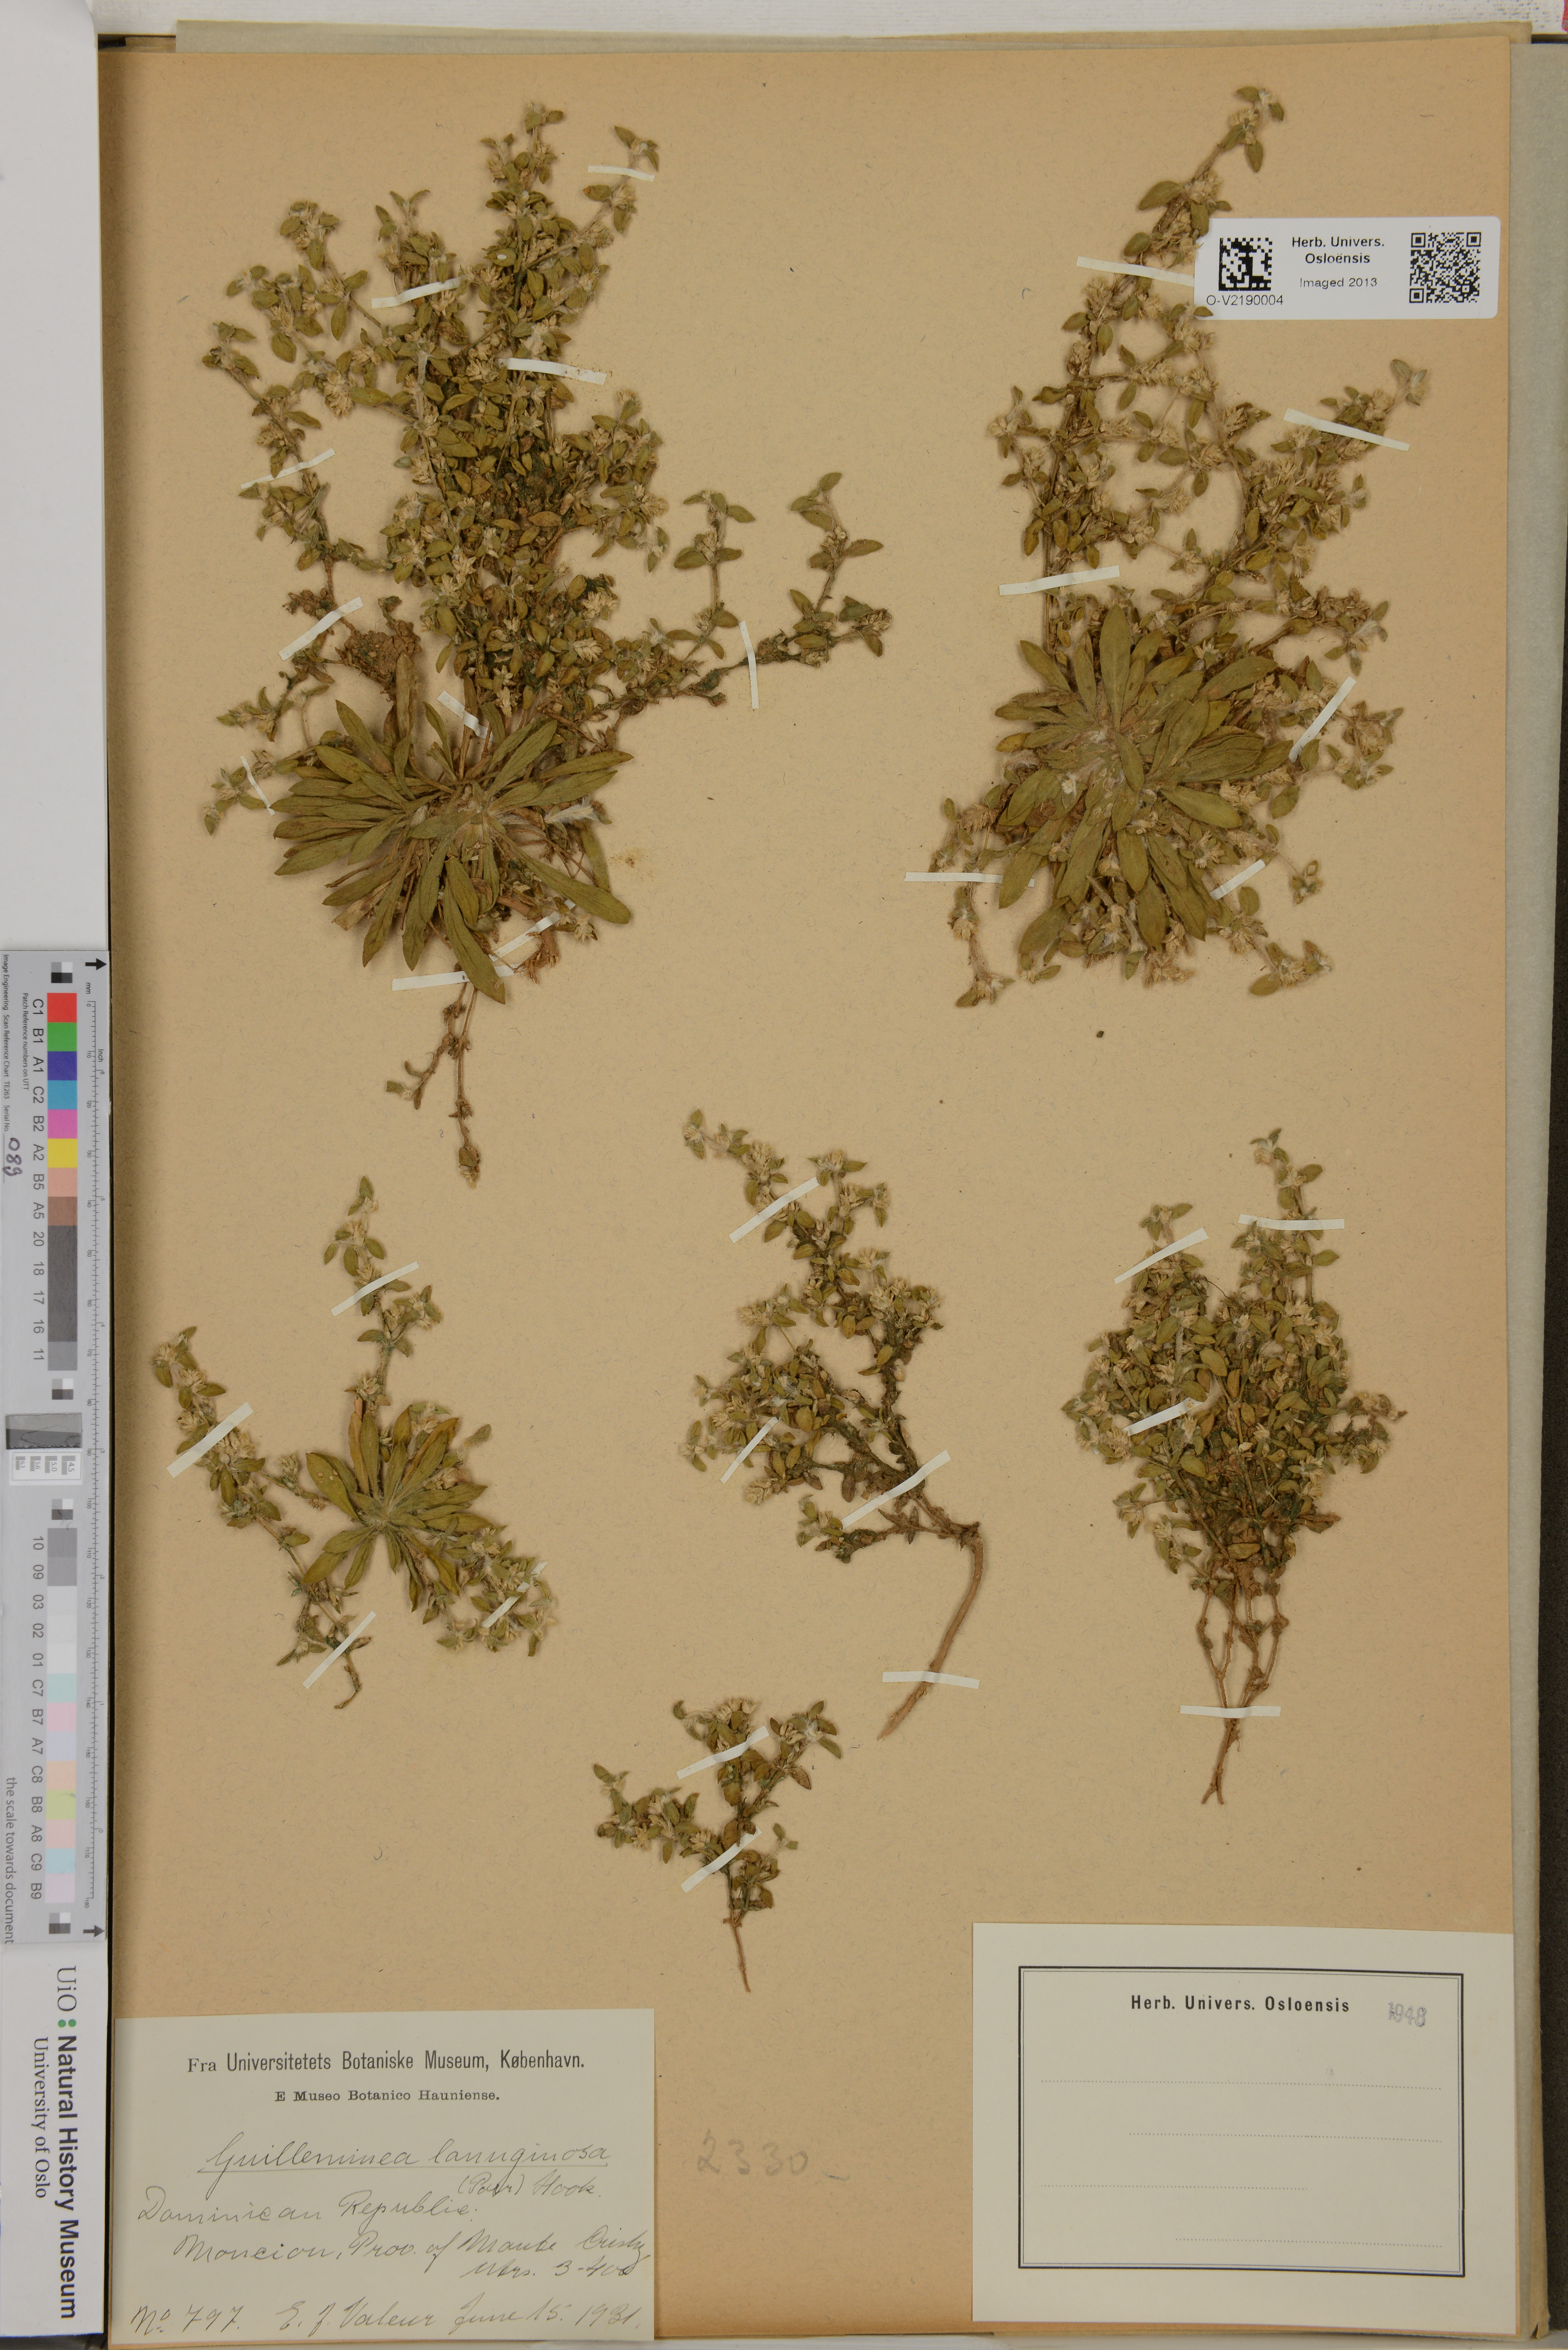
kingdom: Plantae
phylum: Tracheophyta
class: Magnoliopsida
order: Caryophyllales
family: Amaranthaceae
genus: Gomphrena
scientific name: Gomphrena lanuparonychioides
